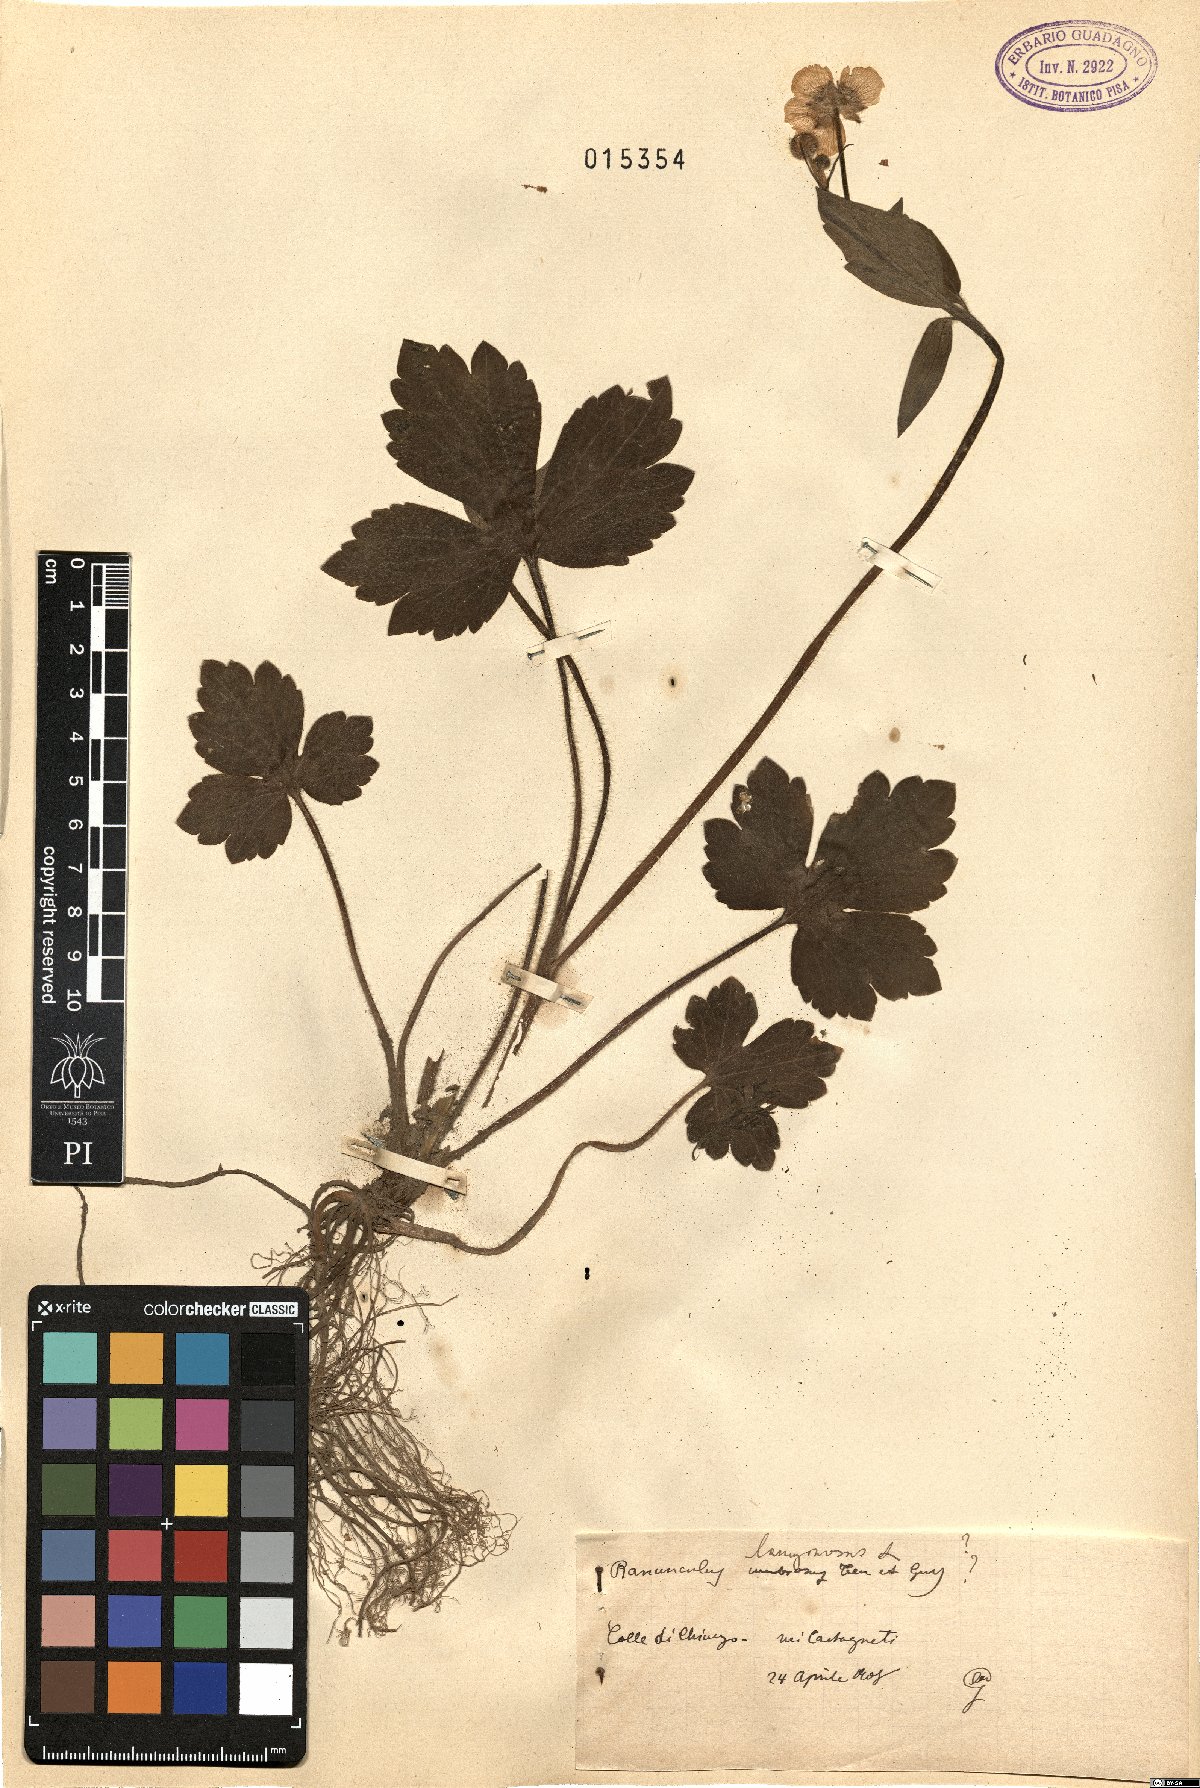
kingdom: Plantae
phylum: Tracheophyta
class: Magnoliopsida
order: Ranunculales
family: Ranunculaceae
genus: Ranunculus
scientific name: Ranunculus lanuginosus
